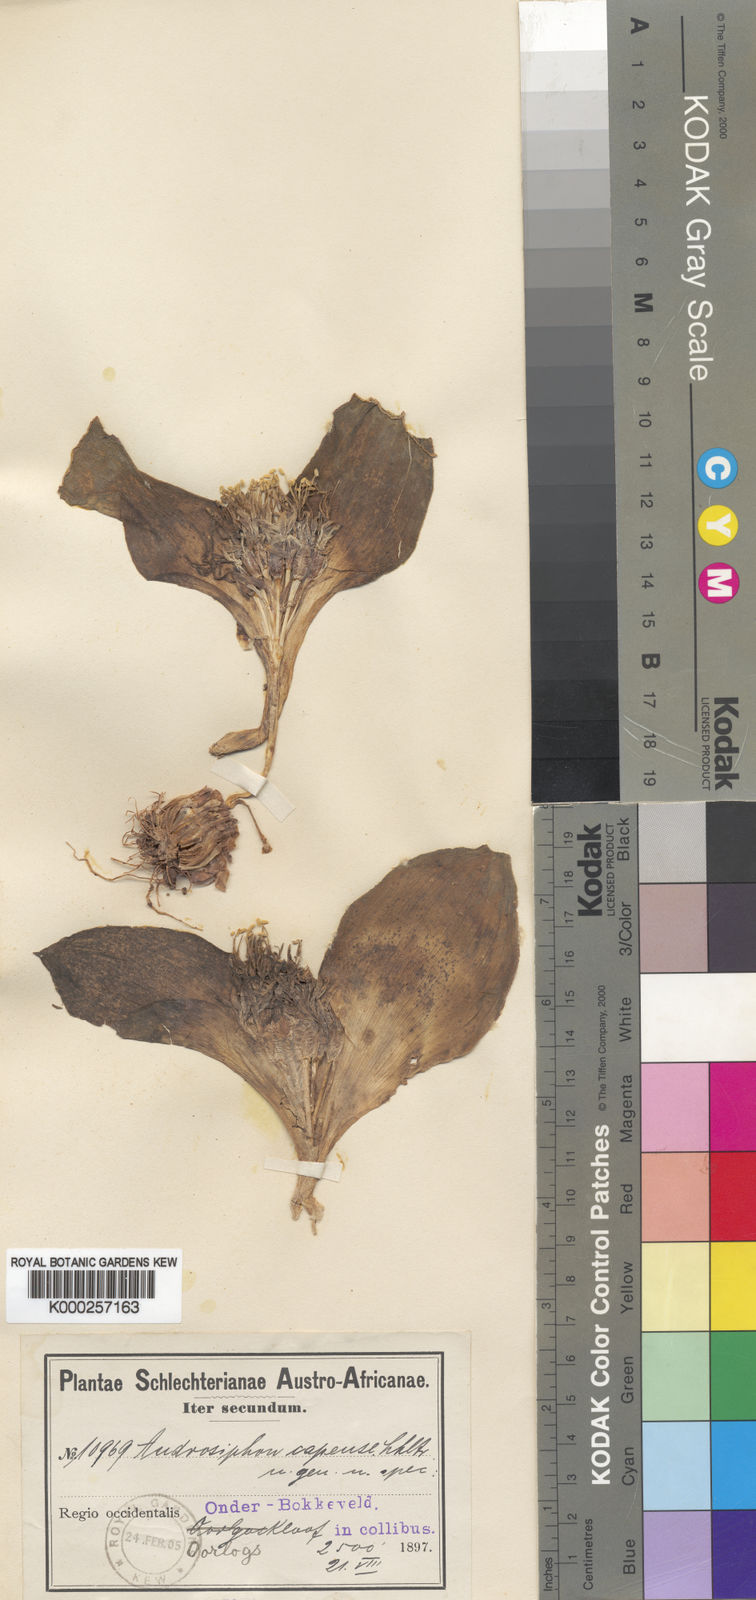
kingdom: Plantae
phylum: Tracheophyta
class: Liliopsida
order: Asparagales
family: Asparagaceae
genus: Daubenya
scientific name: Daubenya capensis
